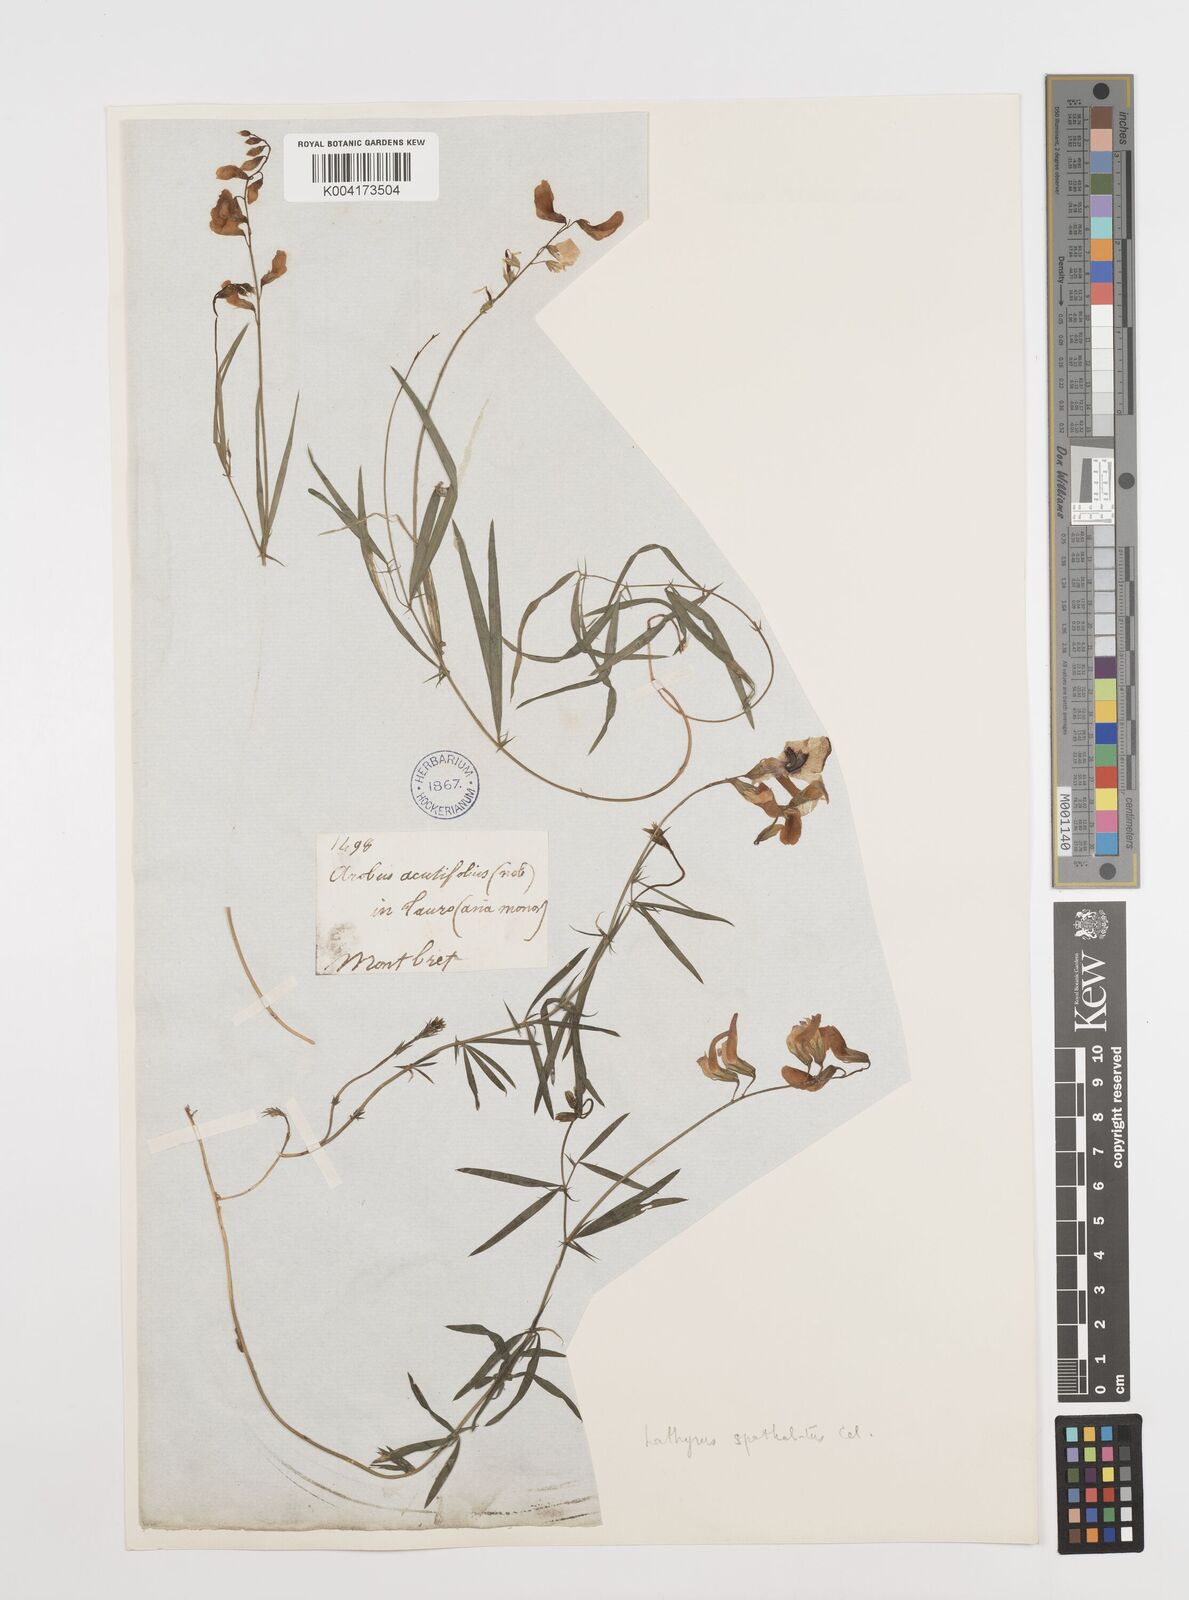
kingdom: Plantae
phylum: Tracheophyta
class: Magnoliopsida
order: Fabales
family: Fabaceae
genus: Lathyrus
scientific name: Lathyrus spathulatus
